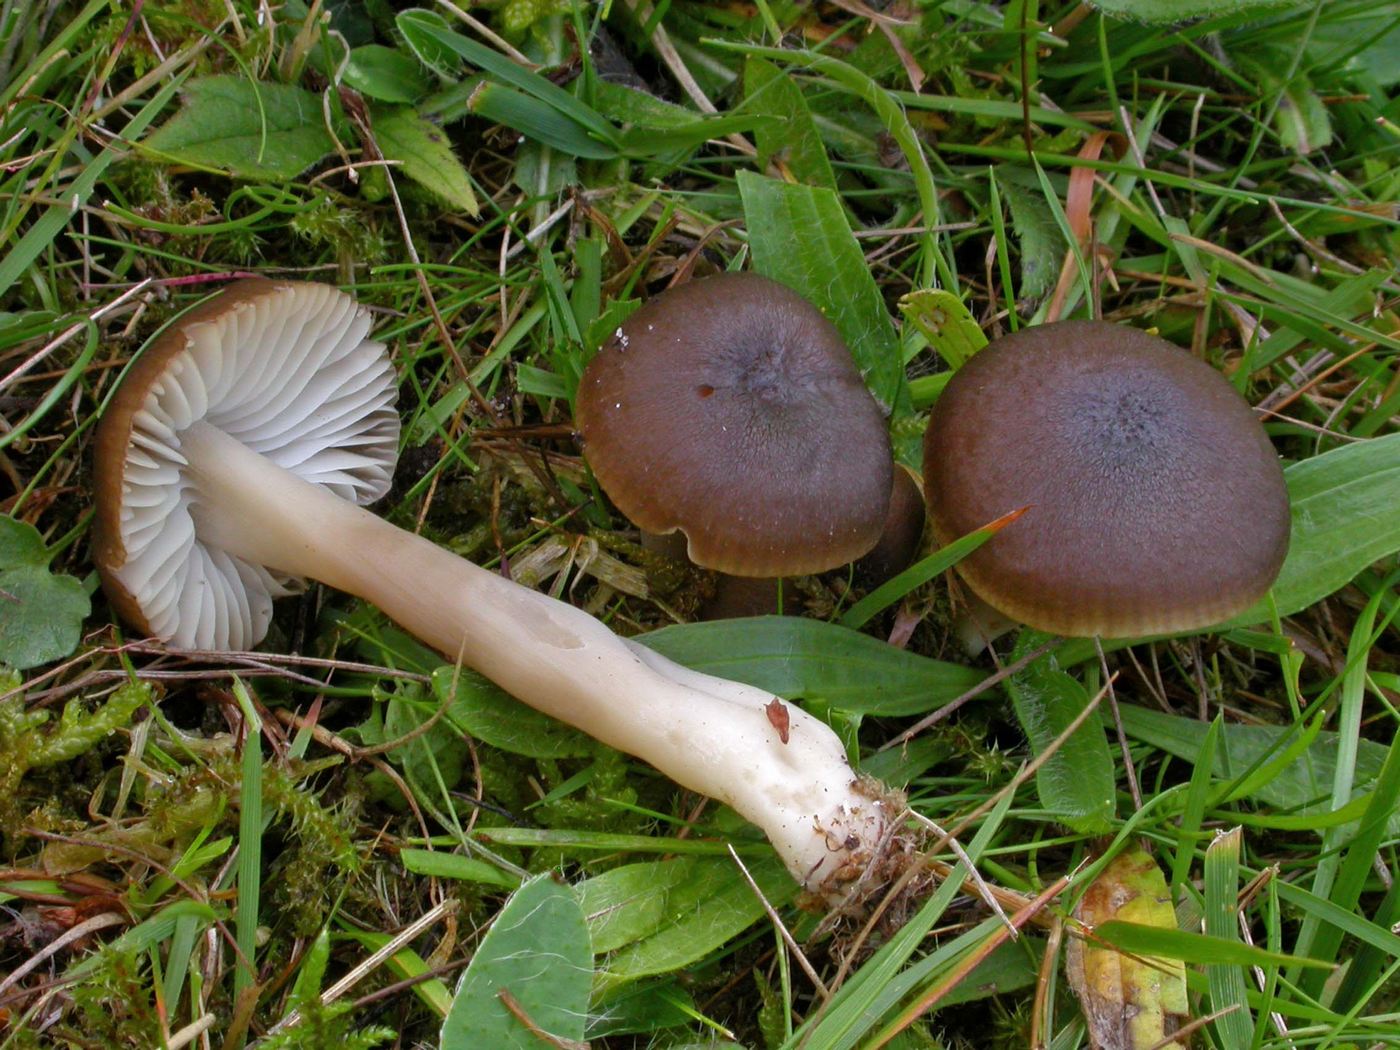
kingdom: Fungi
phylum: Basidiomycota
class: Agaricomycetes
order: Agaricales
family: Hygrophoraceae
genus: Neohygrocybe
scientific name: Neohygrocybe nitrata
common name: stinkende vokshat
